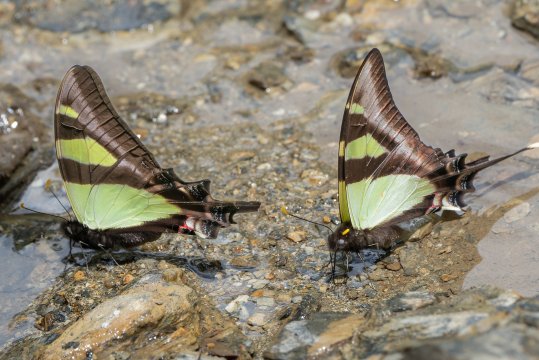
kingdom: Animalia
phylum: Arthropoda
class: Insecta
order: Lepidoptera
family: Papilionidae
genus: Eurytides
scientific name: Eurytides
